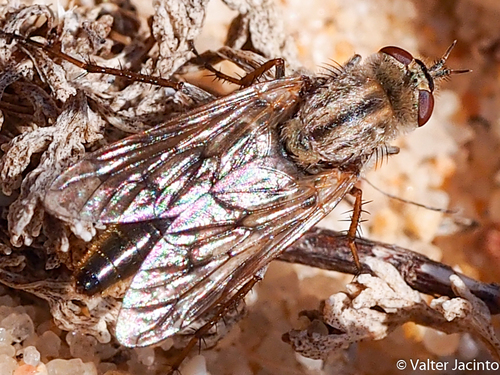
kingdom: Animalia
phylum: Arthropoda
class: Insecta
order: Diptera
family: Therevidae
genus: Thereva
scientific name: Thereva hispanica
